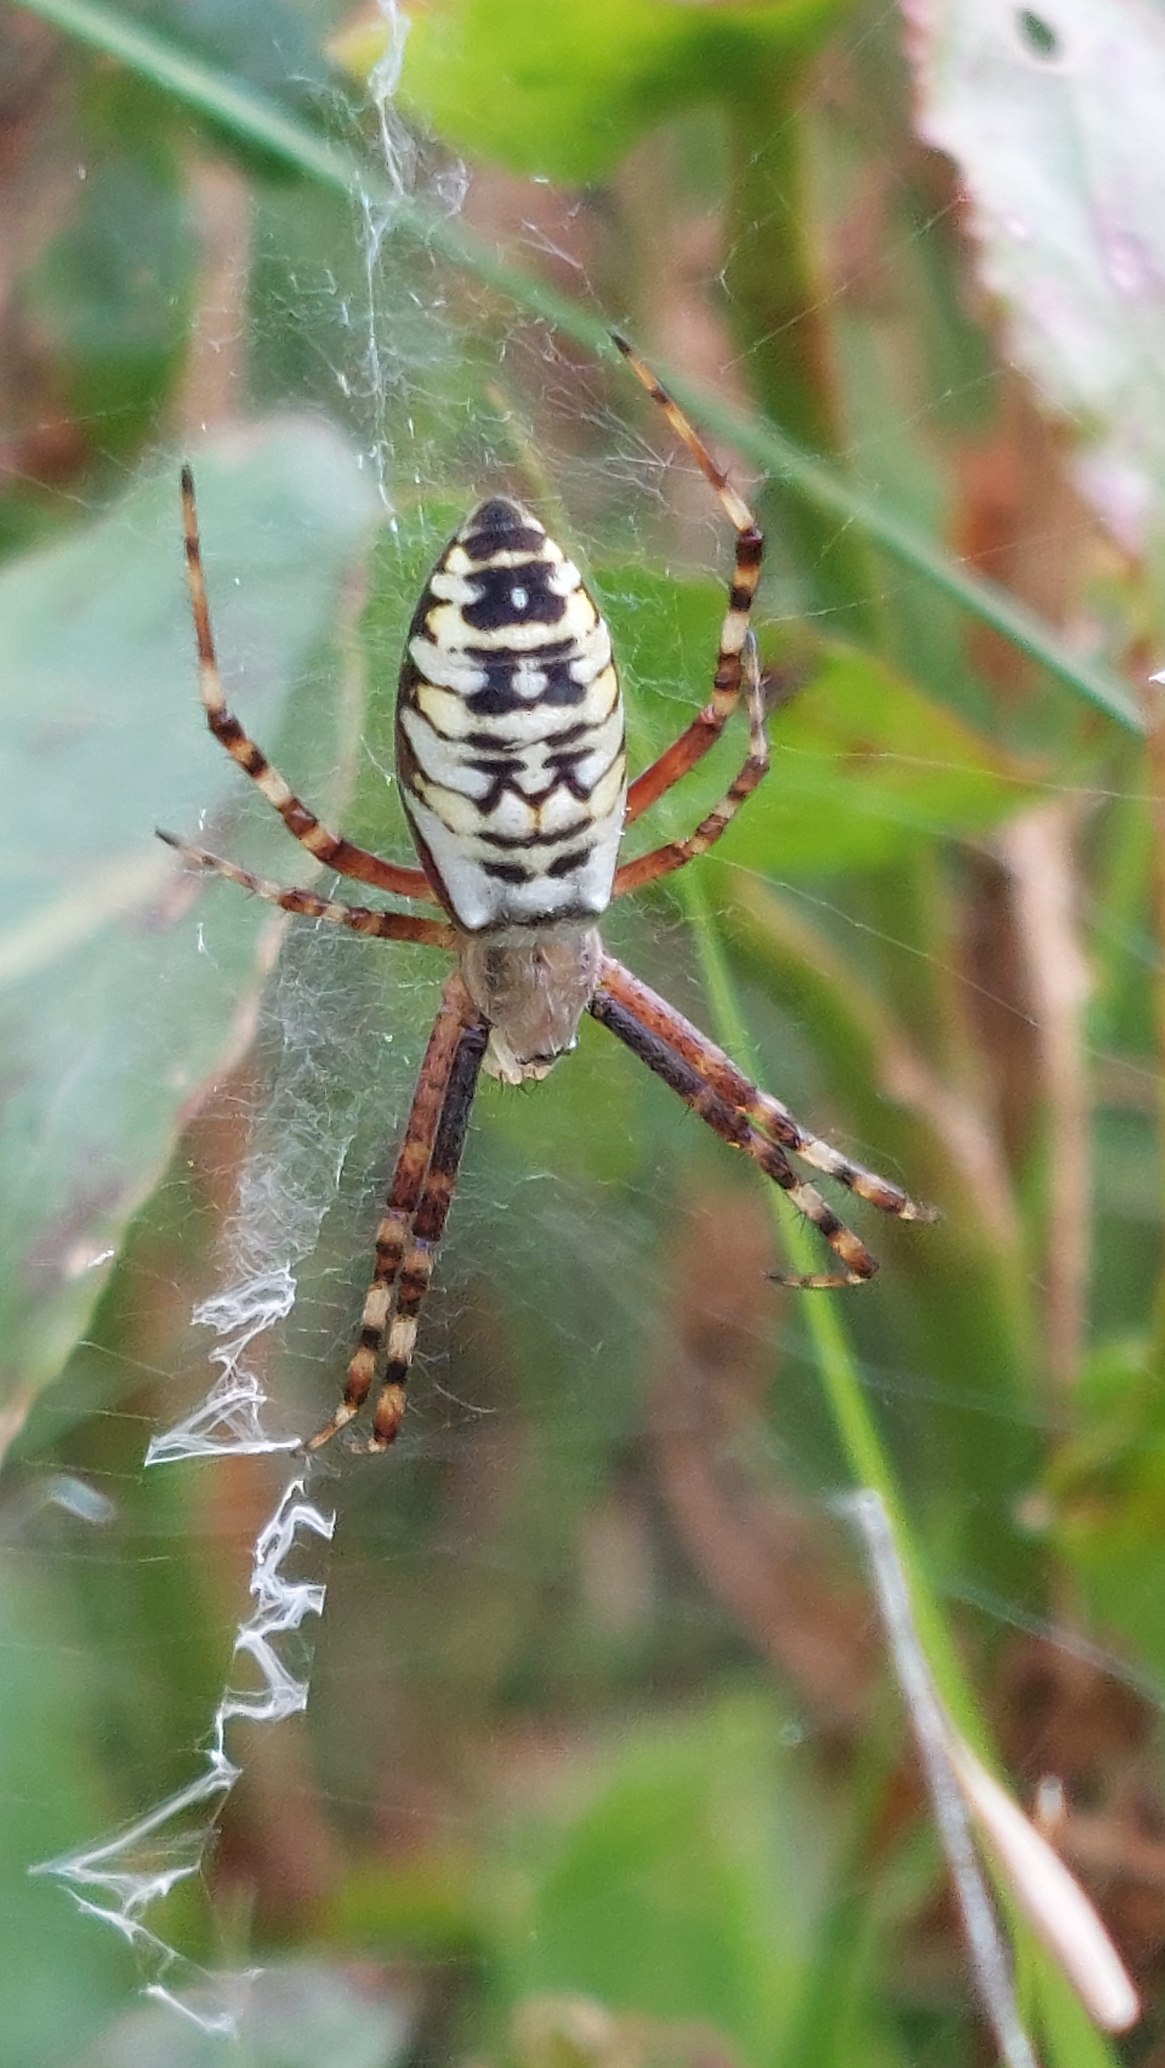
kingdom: Animalia
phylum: Arthropoda
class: Arachnida
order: Araneae
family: Araneidae
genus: Argiope
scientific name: Argiope bruennichi
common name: Hvepseedderkop
